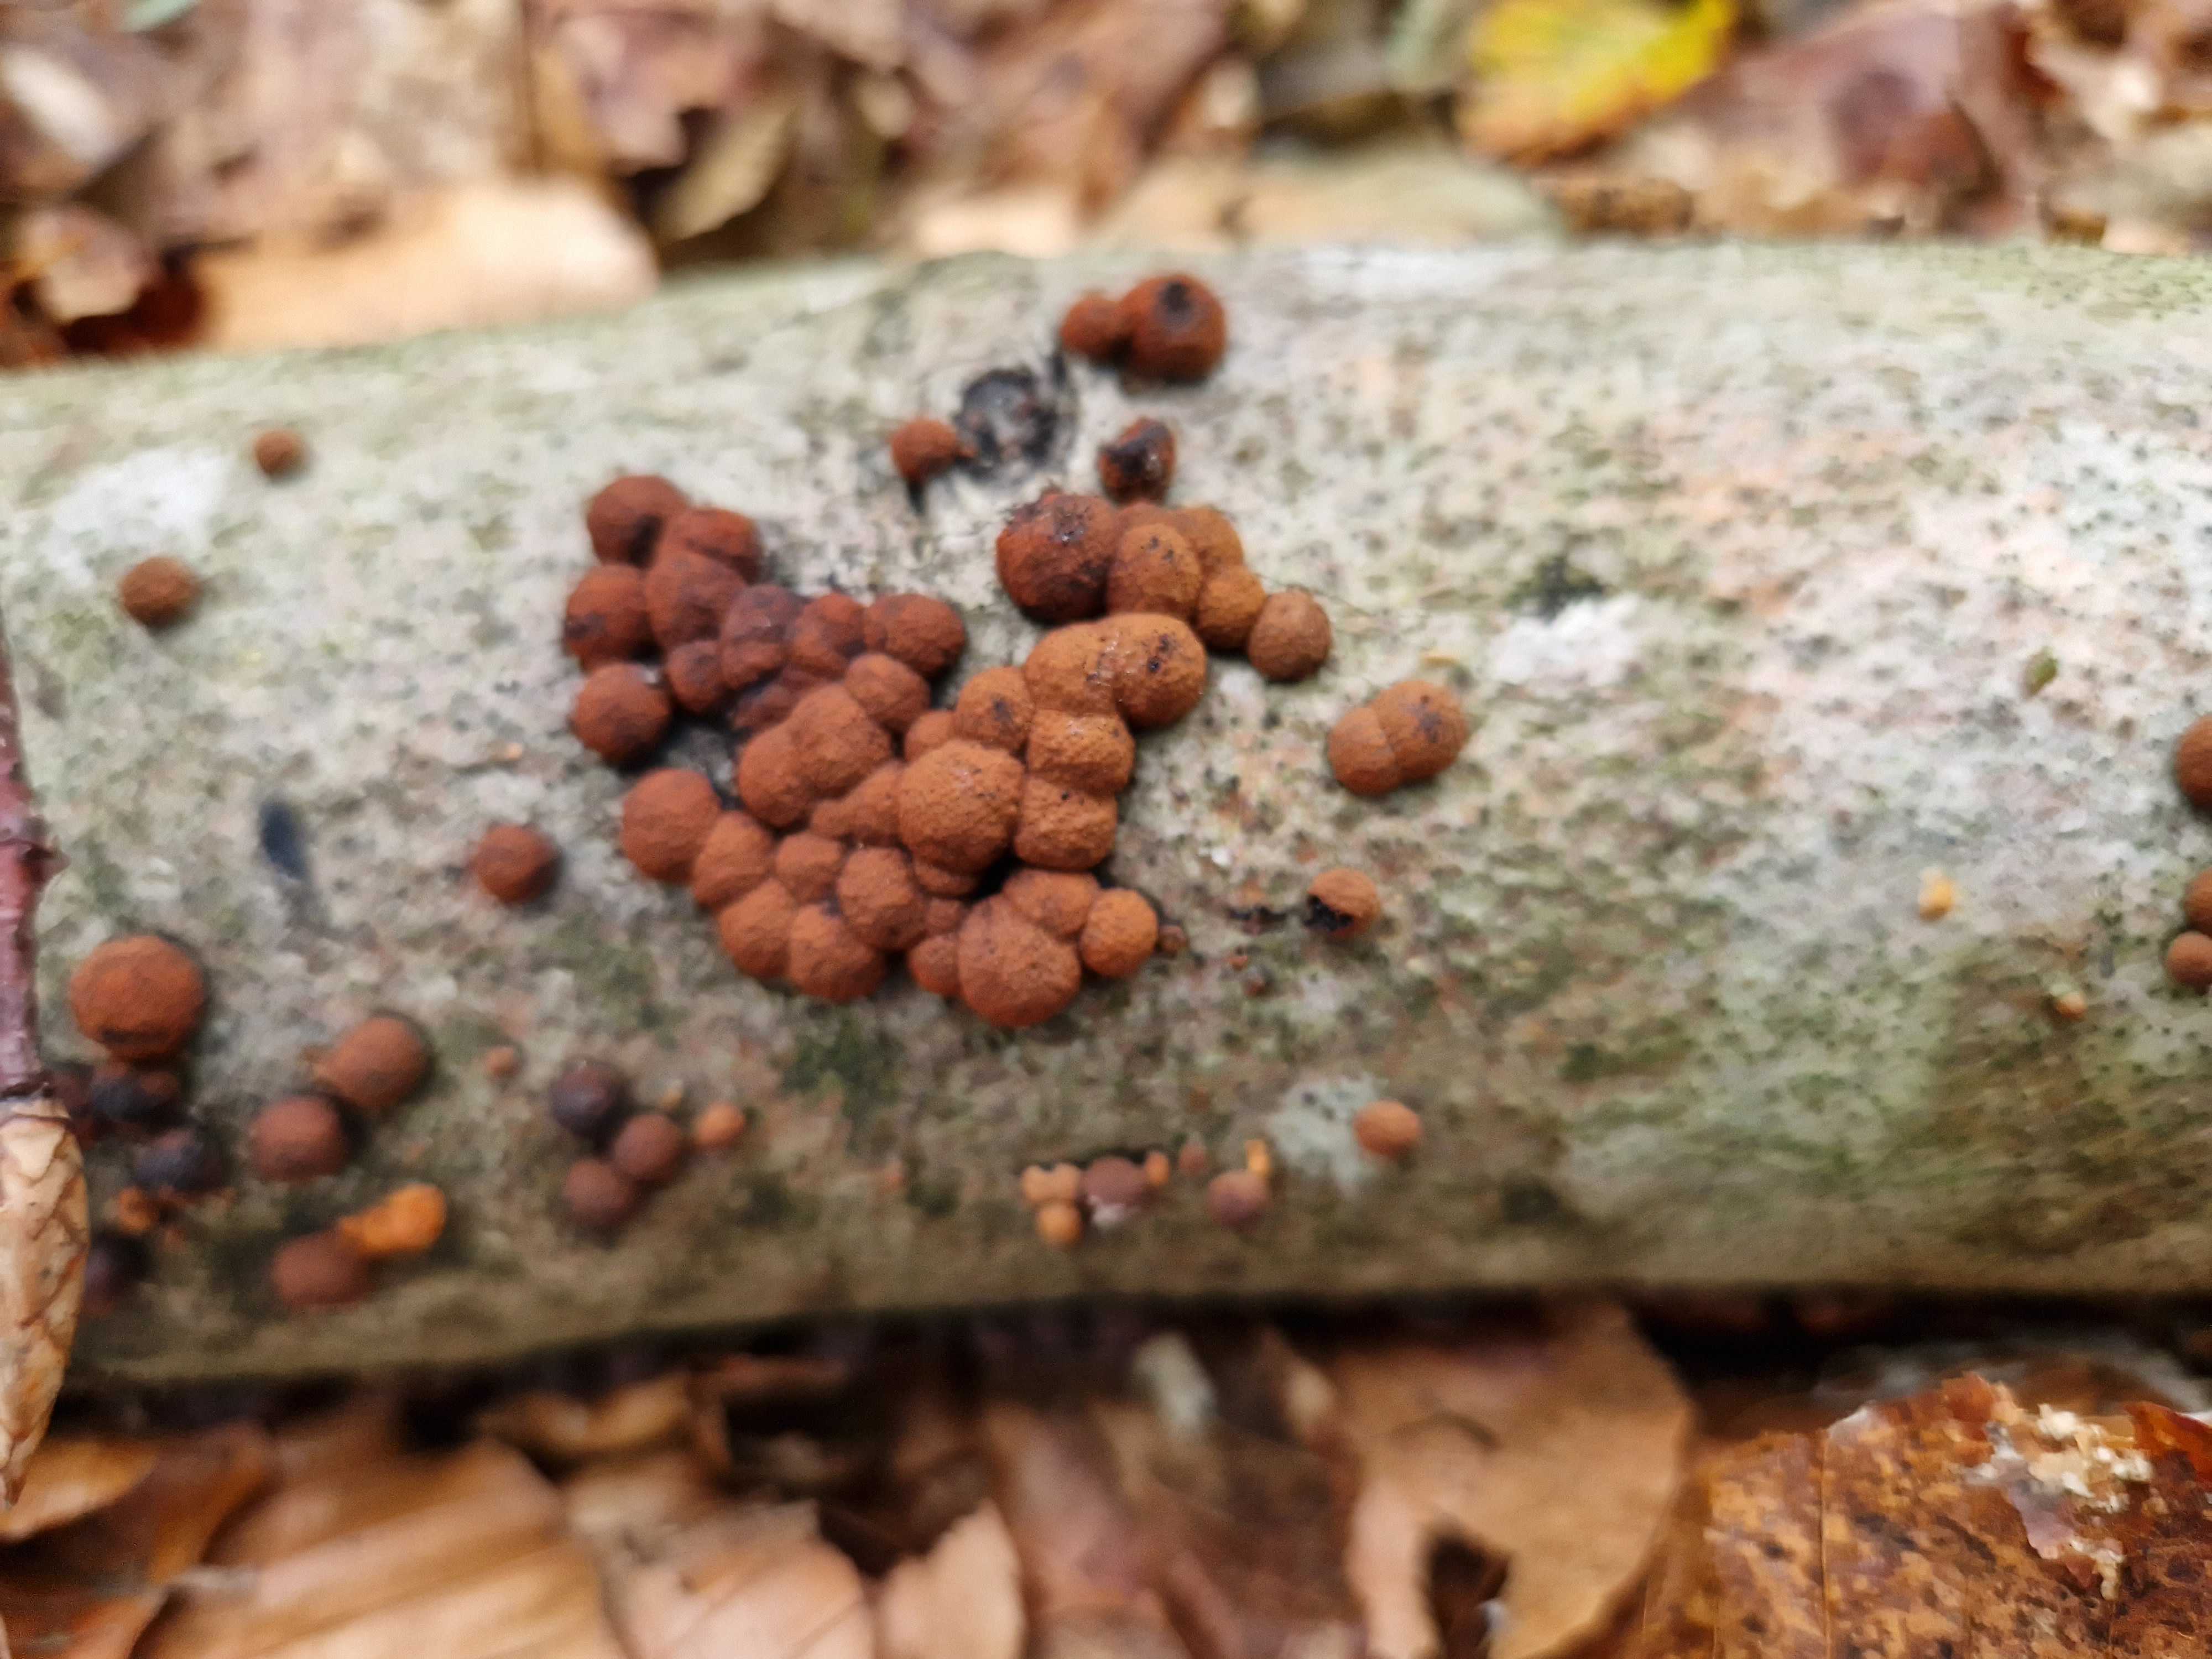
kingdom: Fungi
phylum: Ascomycota
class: Sordariomycetes
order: Xylariales
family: Hypoxylaceae
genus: Hypoxylon
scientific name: Hypoxylon fragiforme
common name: kuljordbær
